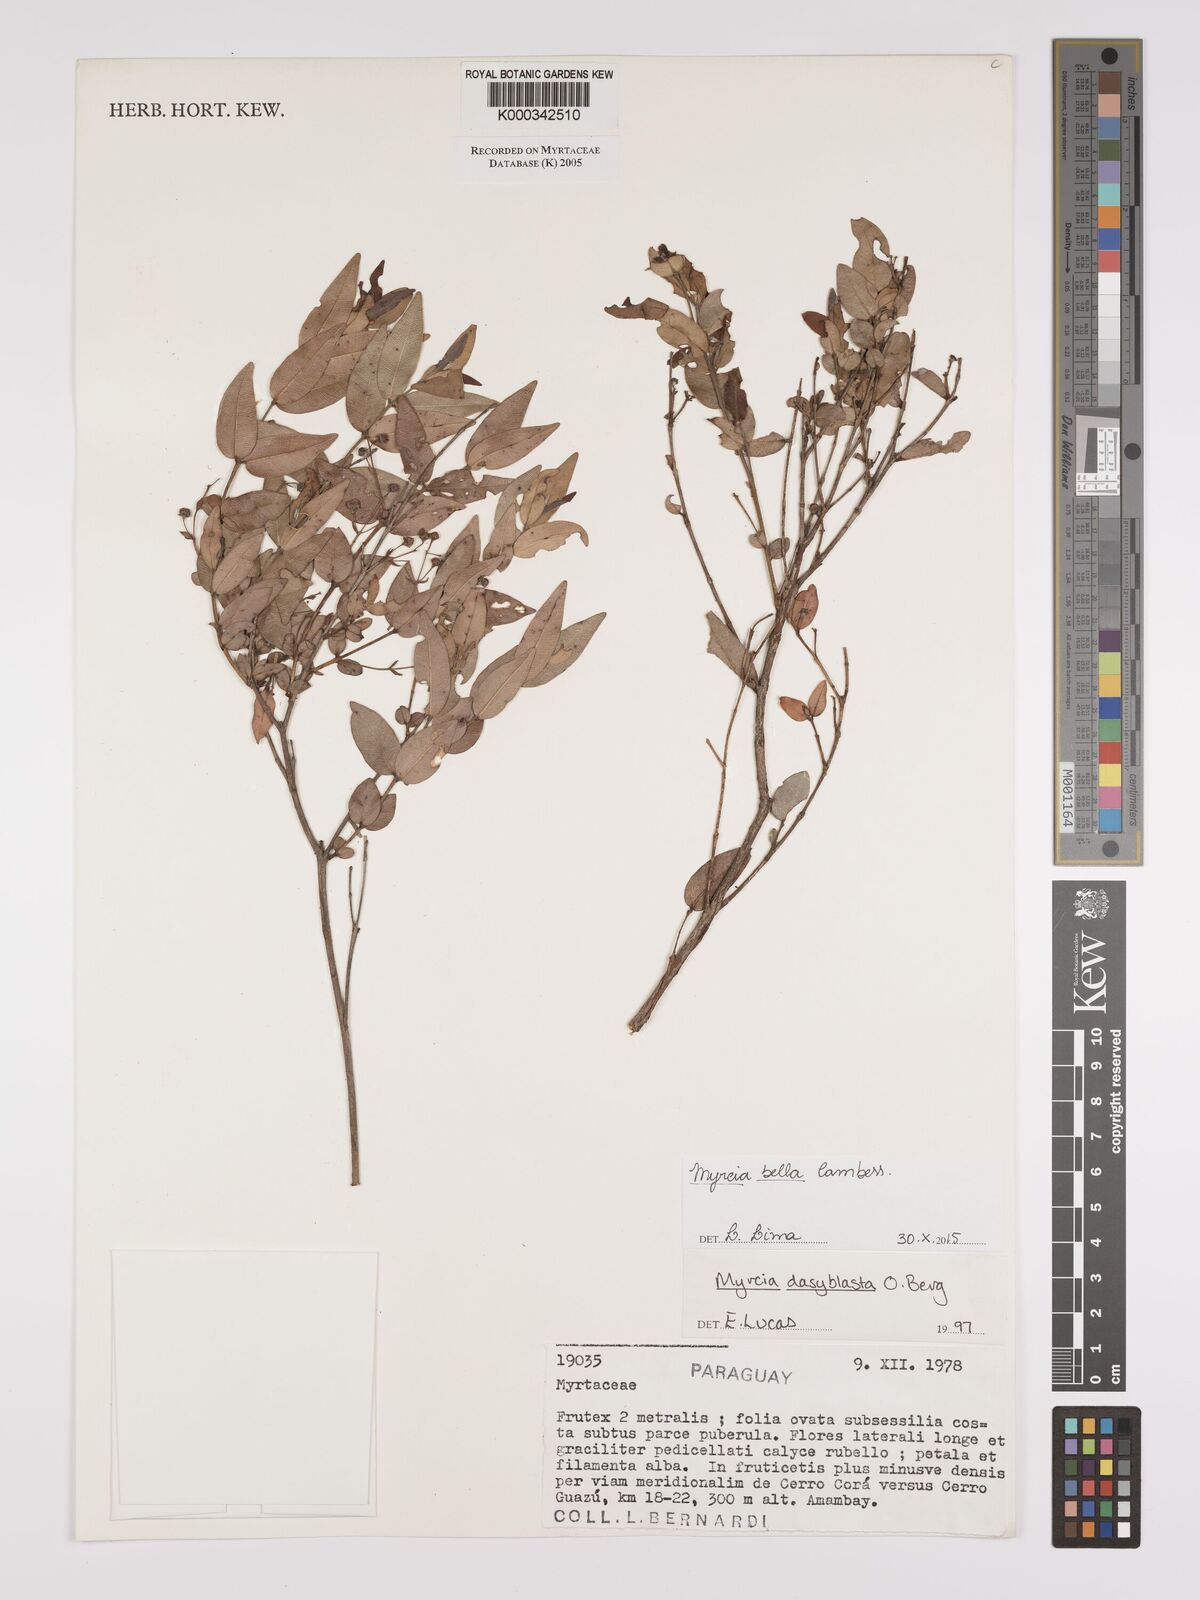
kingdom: Plantae
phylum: Tracheophyta
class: Magnoliopsida
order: Myrtales
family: Myrtaceae
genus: Myrcia
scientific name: Myrcia dasyblasta
